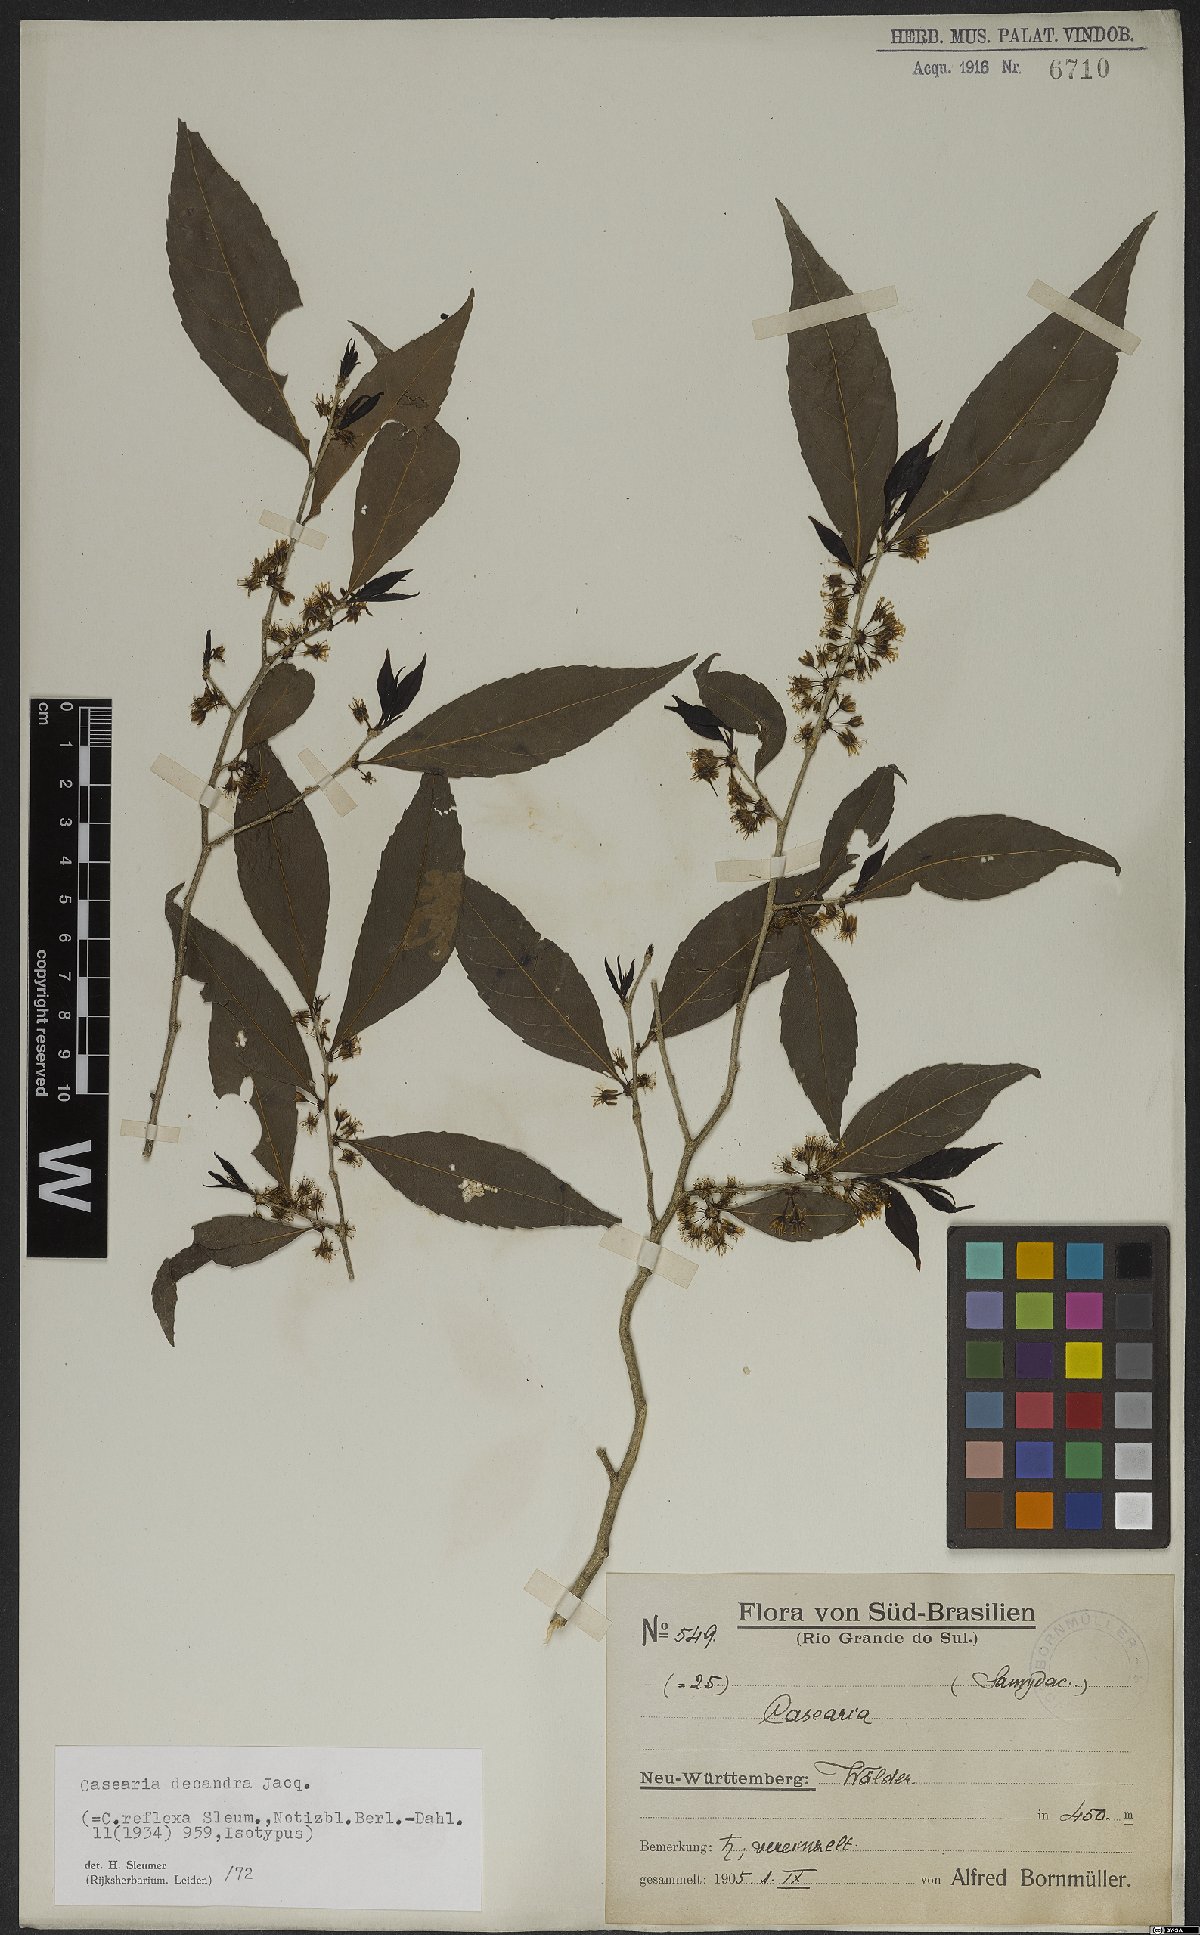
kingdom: Plantae
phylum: Tracheophyta
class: Magnoliopsida
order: Malpighiales
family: Salicaceae
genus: Casearia
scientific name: Casearia decandra
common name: Crack open
